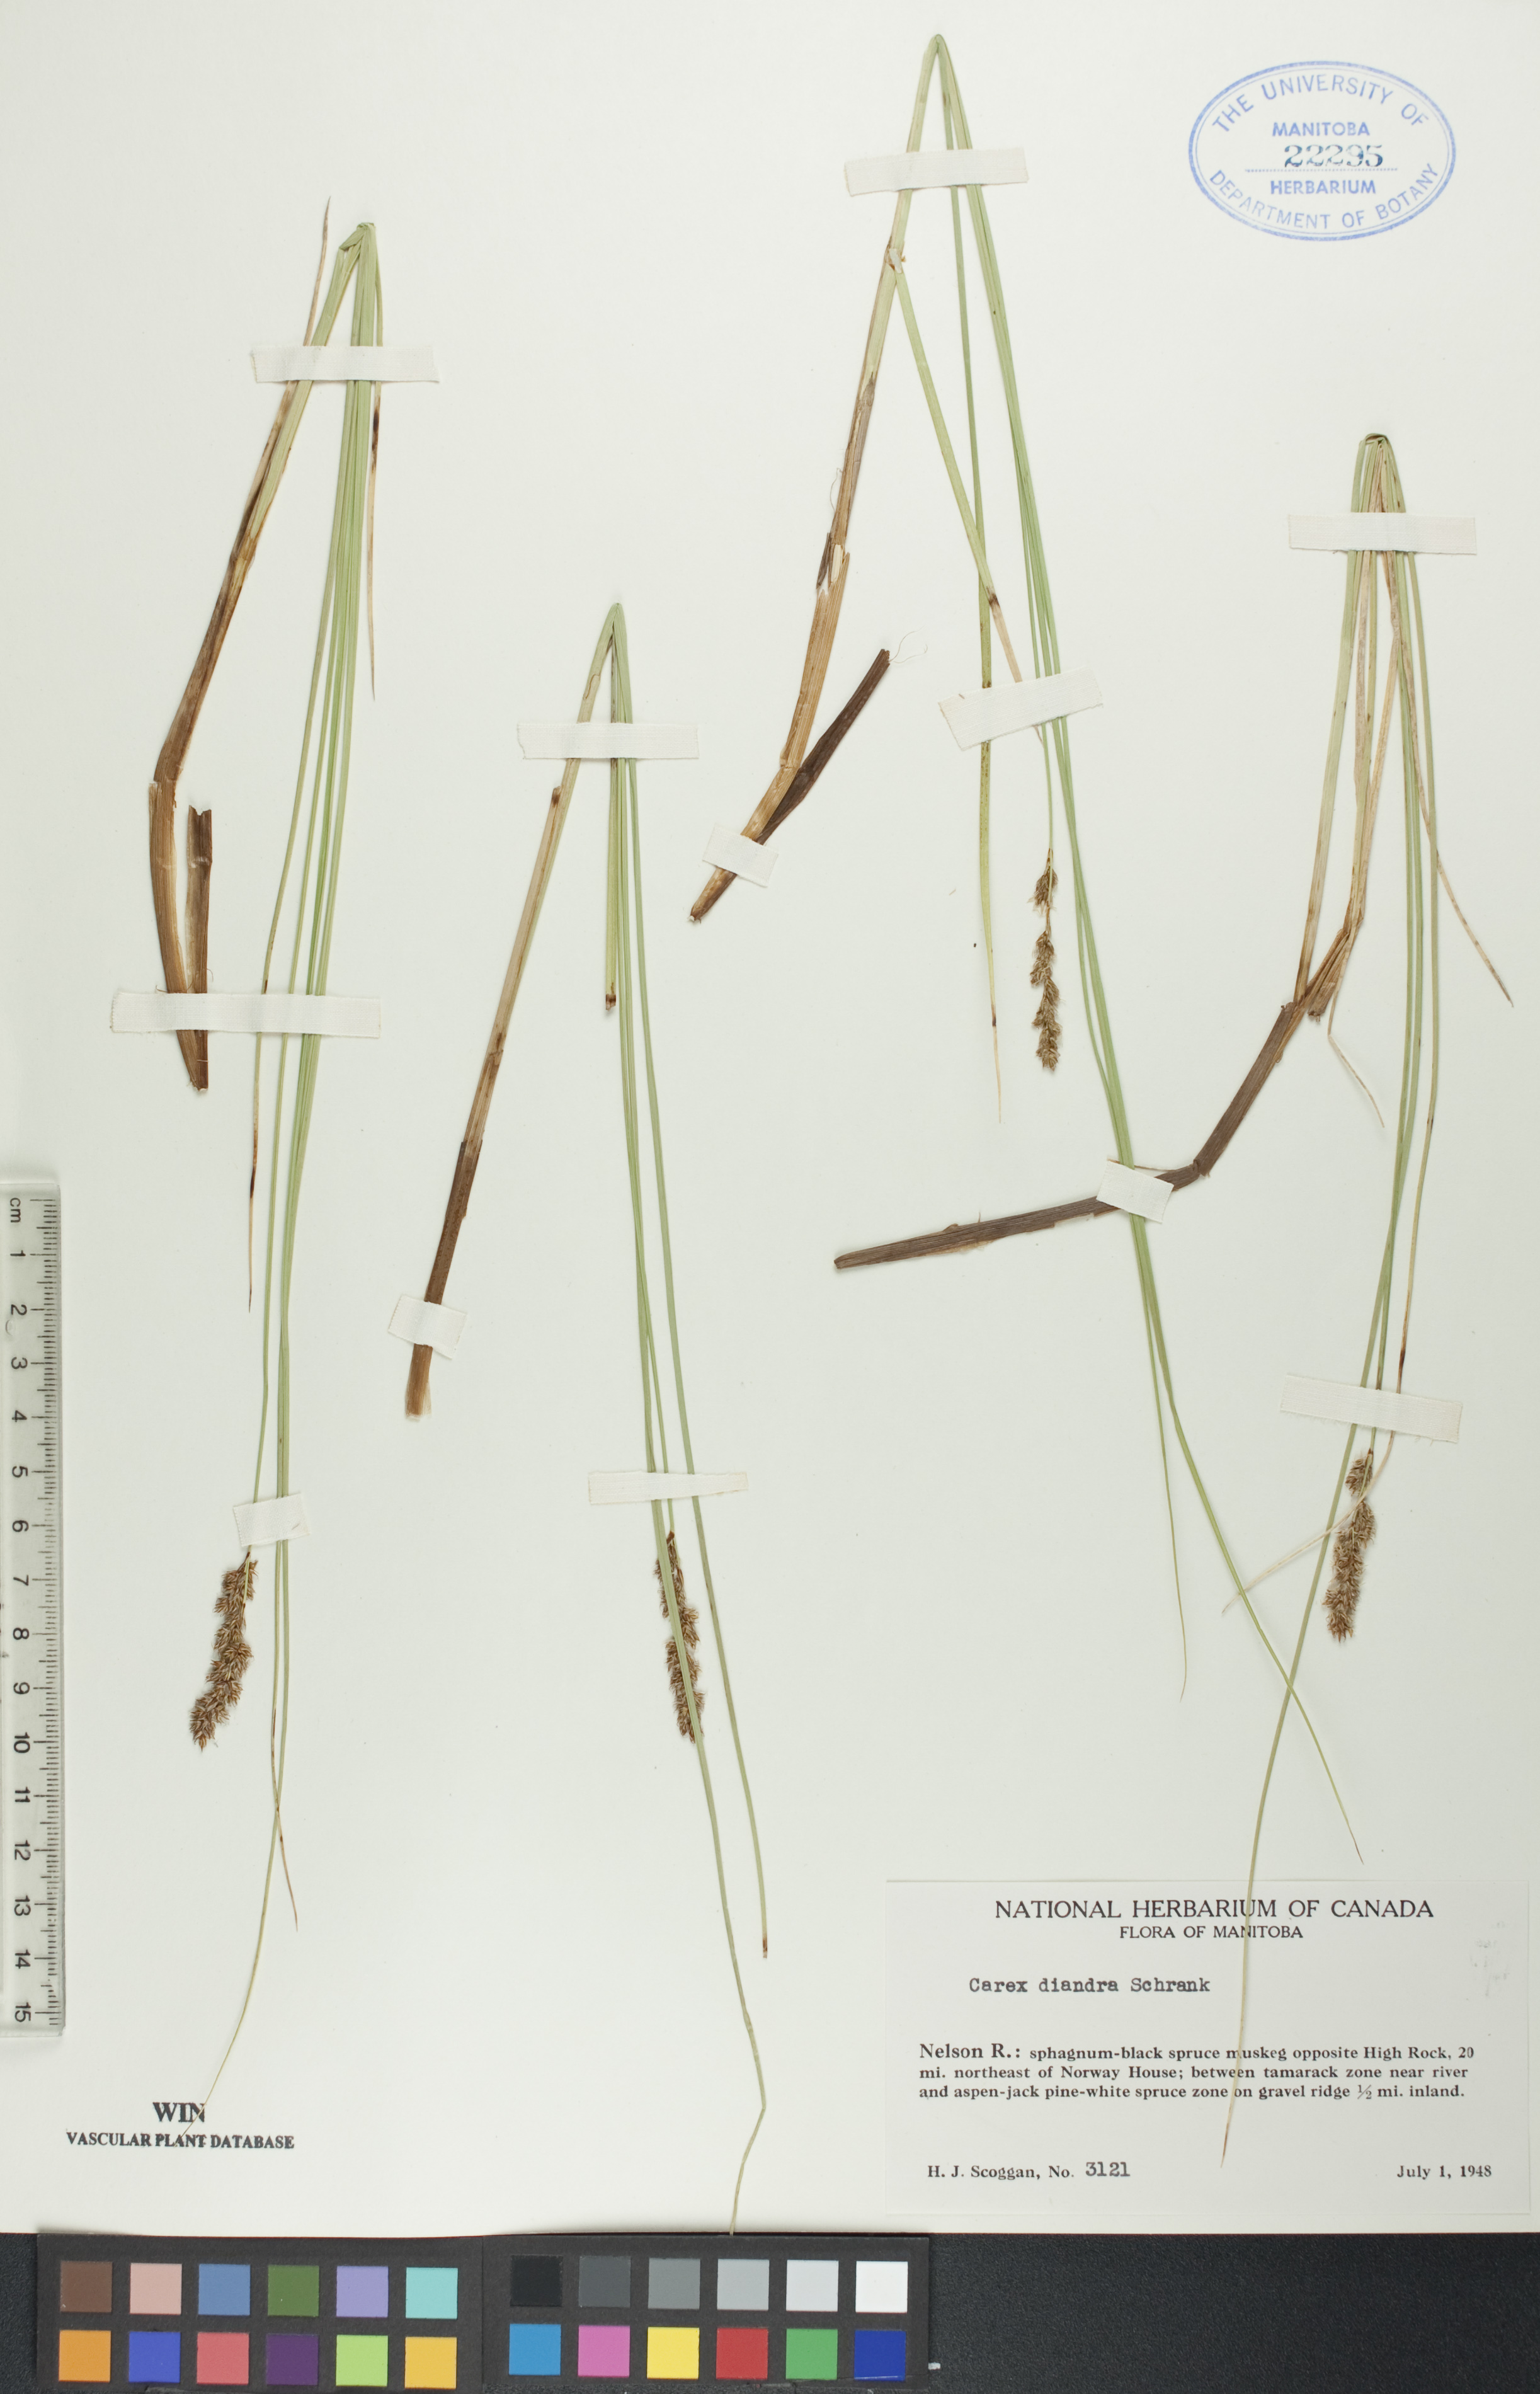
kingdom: Plantae
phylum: Tracheophyta
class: Liliopsida
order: Poales
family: Cyperaceae
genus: Carex
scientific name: Carex diandra
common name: Lesser tussock-sedge
